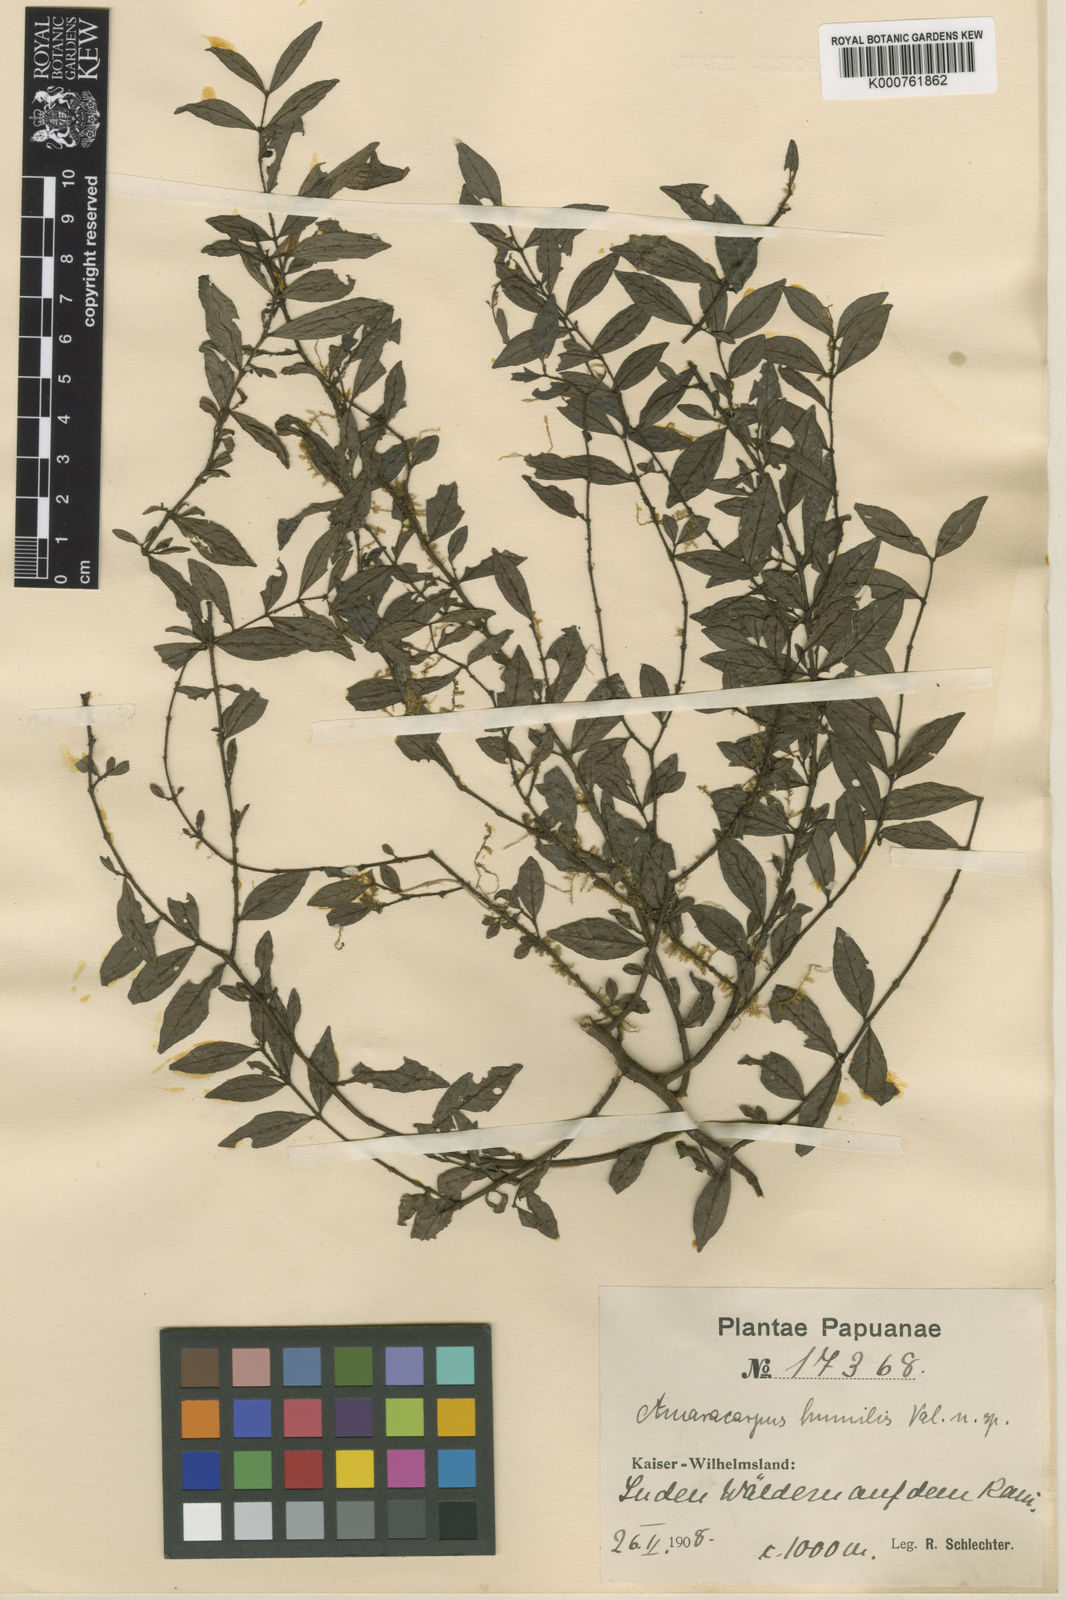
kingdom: Plantae
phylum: Tracheophyta
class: Magnoliopsida
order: Gentianales
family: Rubiaceae
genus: Amaracarpus
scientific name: Amaracarpus grandifolius
